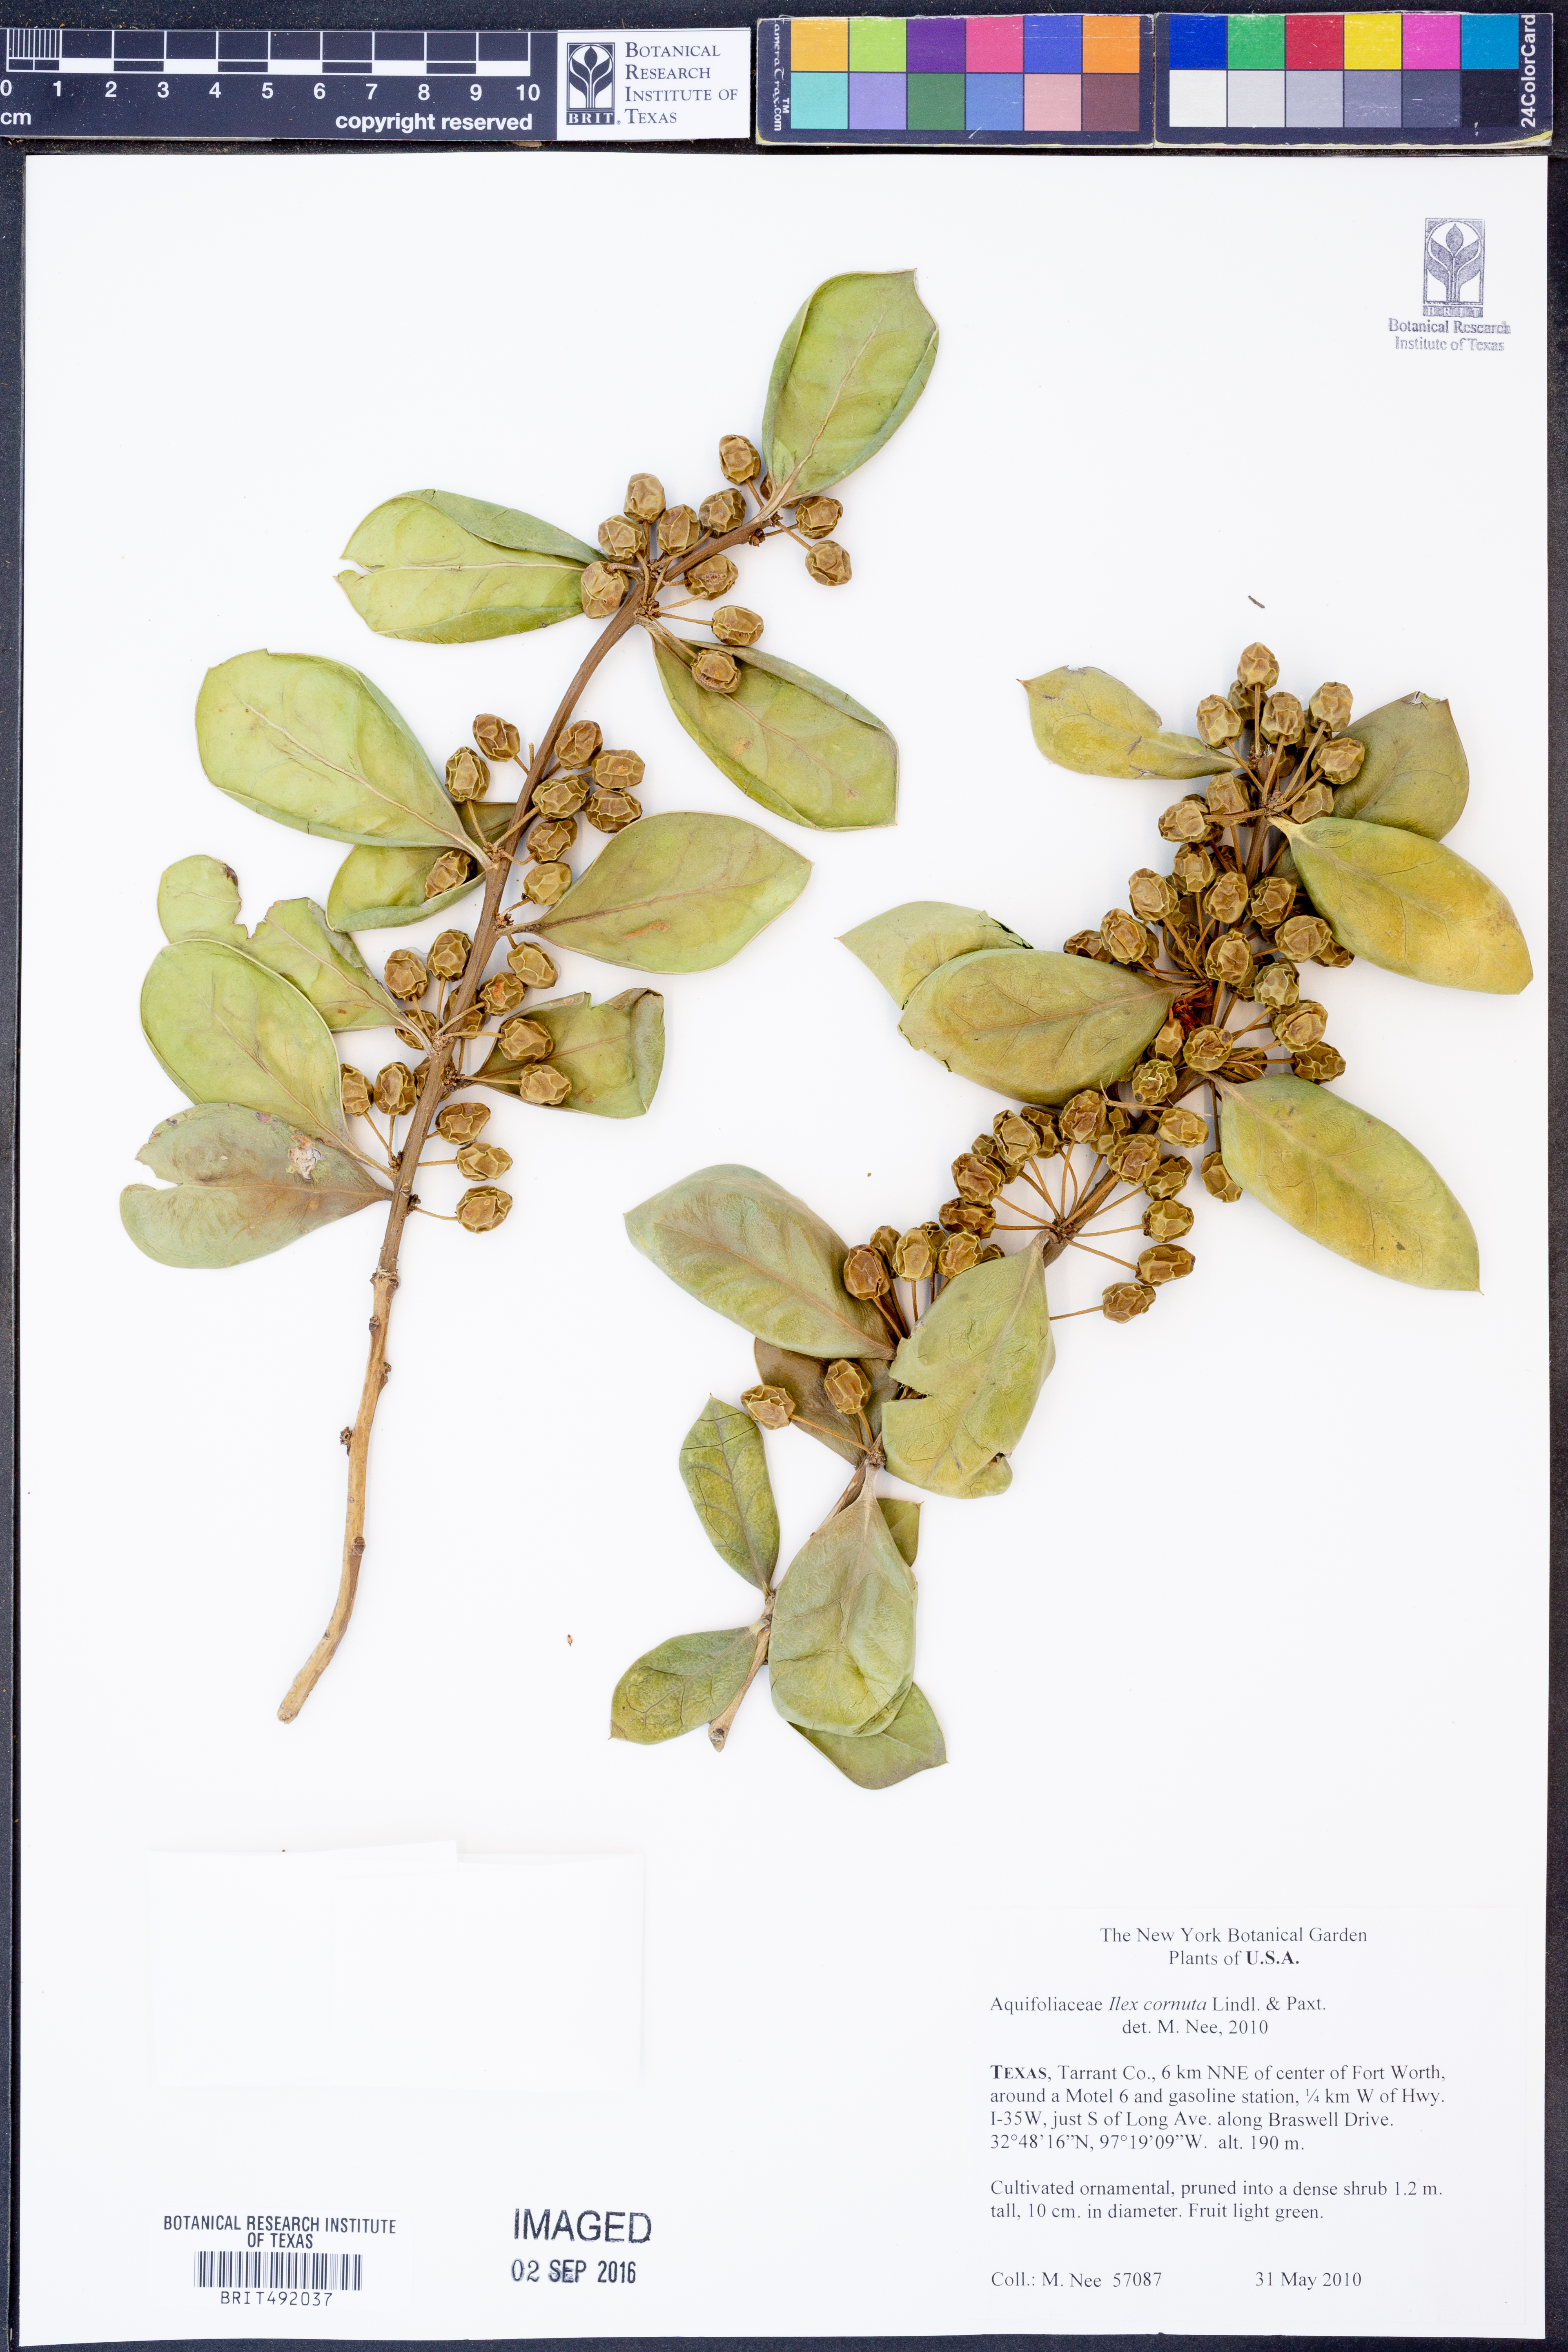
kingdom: Plantae
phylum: Tracheophyta
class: Magnoliopsida
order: Aquifoliales
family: Aquifoliaceae
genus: Ilex
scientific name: Ilex cornuta
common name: Chinese holly
